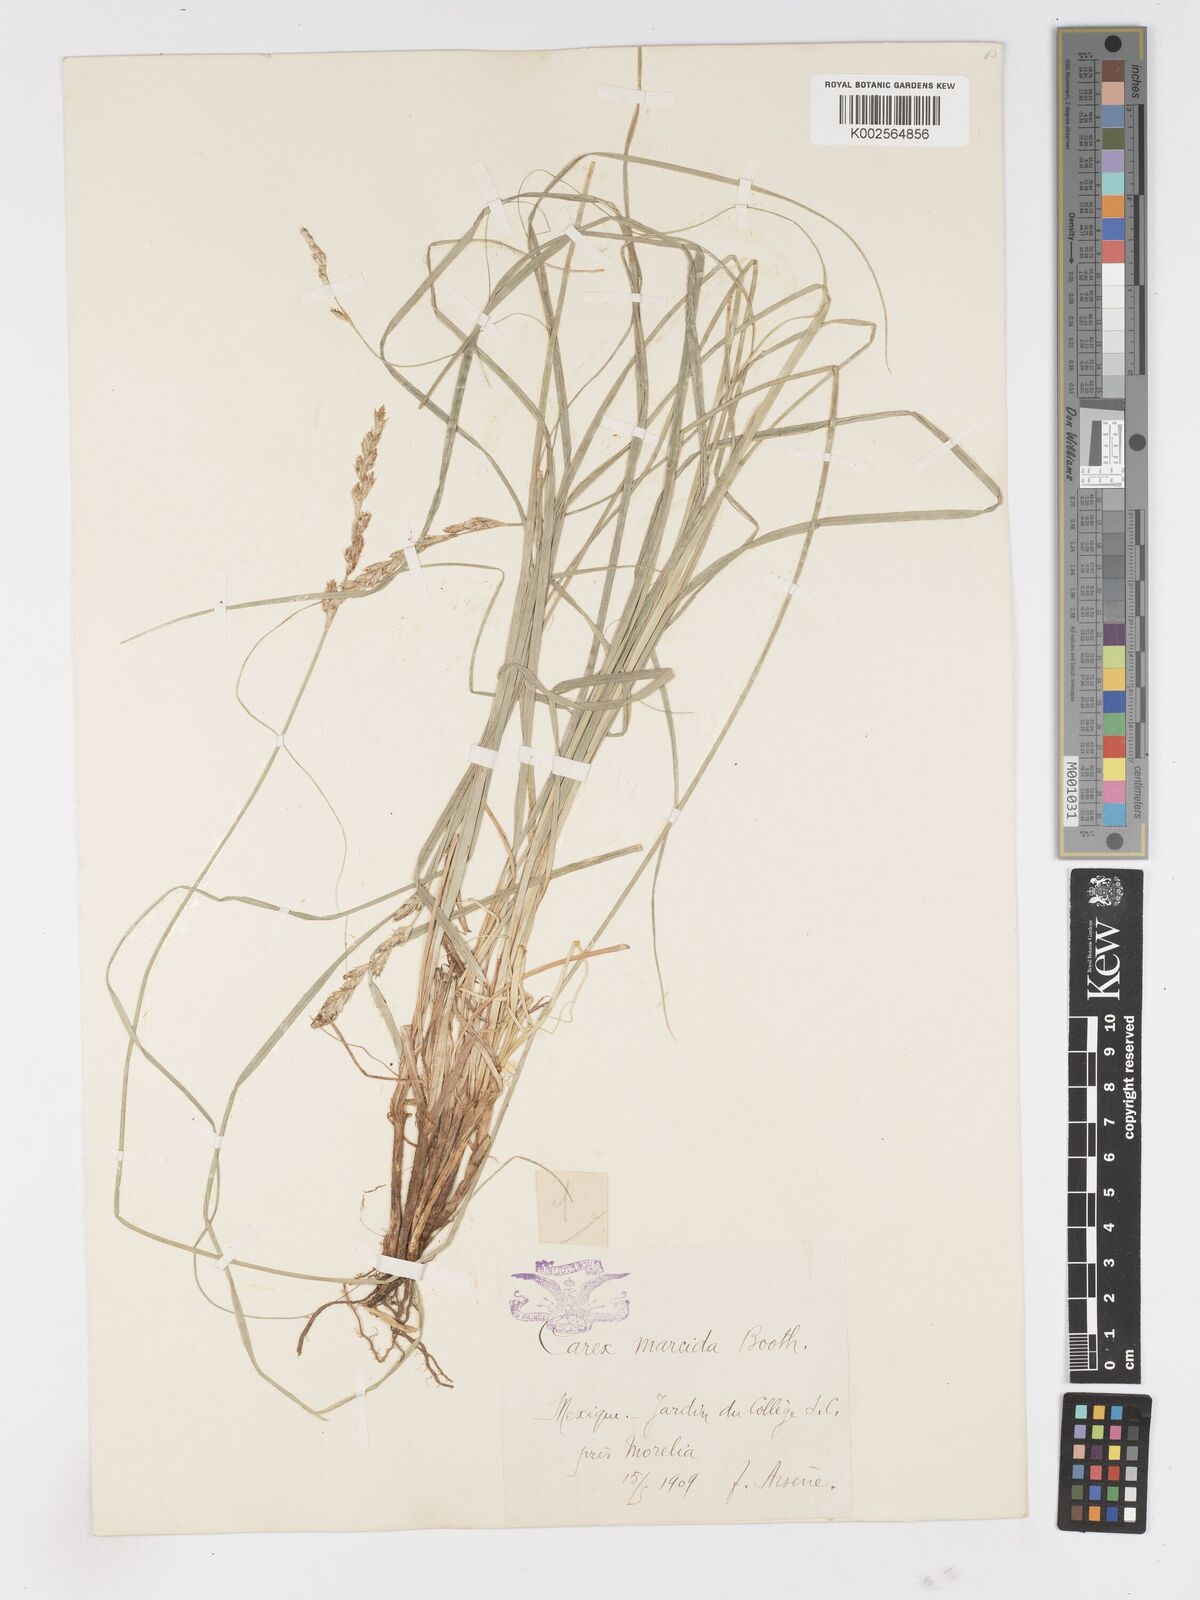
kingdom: Plantae
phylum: Tracheophyta
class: Liliopsida
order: Poales
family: Cyperaceae
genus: Carex
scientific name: Carex praegracilis
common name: Black creeper sedge
